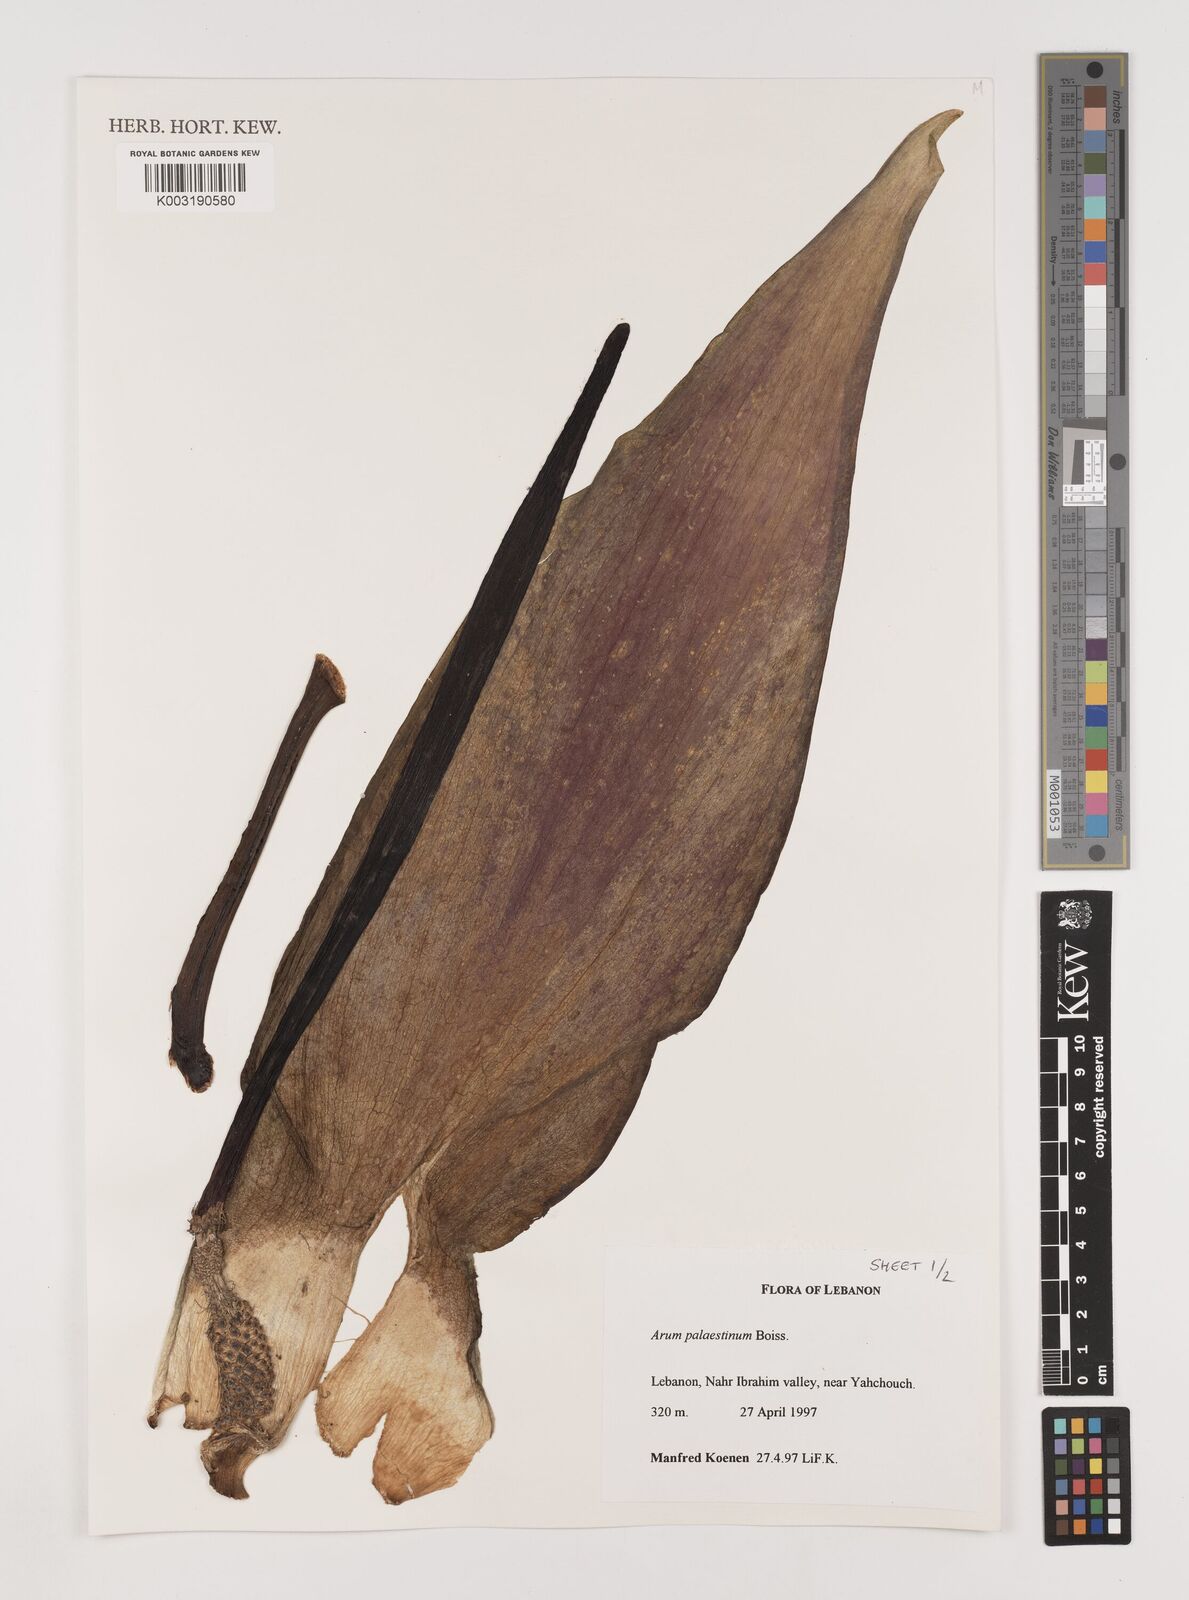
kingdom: Plantae
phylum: Tracheophyta
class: Liliopsida
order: Alismatales
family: Araceae
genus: Arum
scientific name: Arum palaestinum
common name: Solomon's lily
